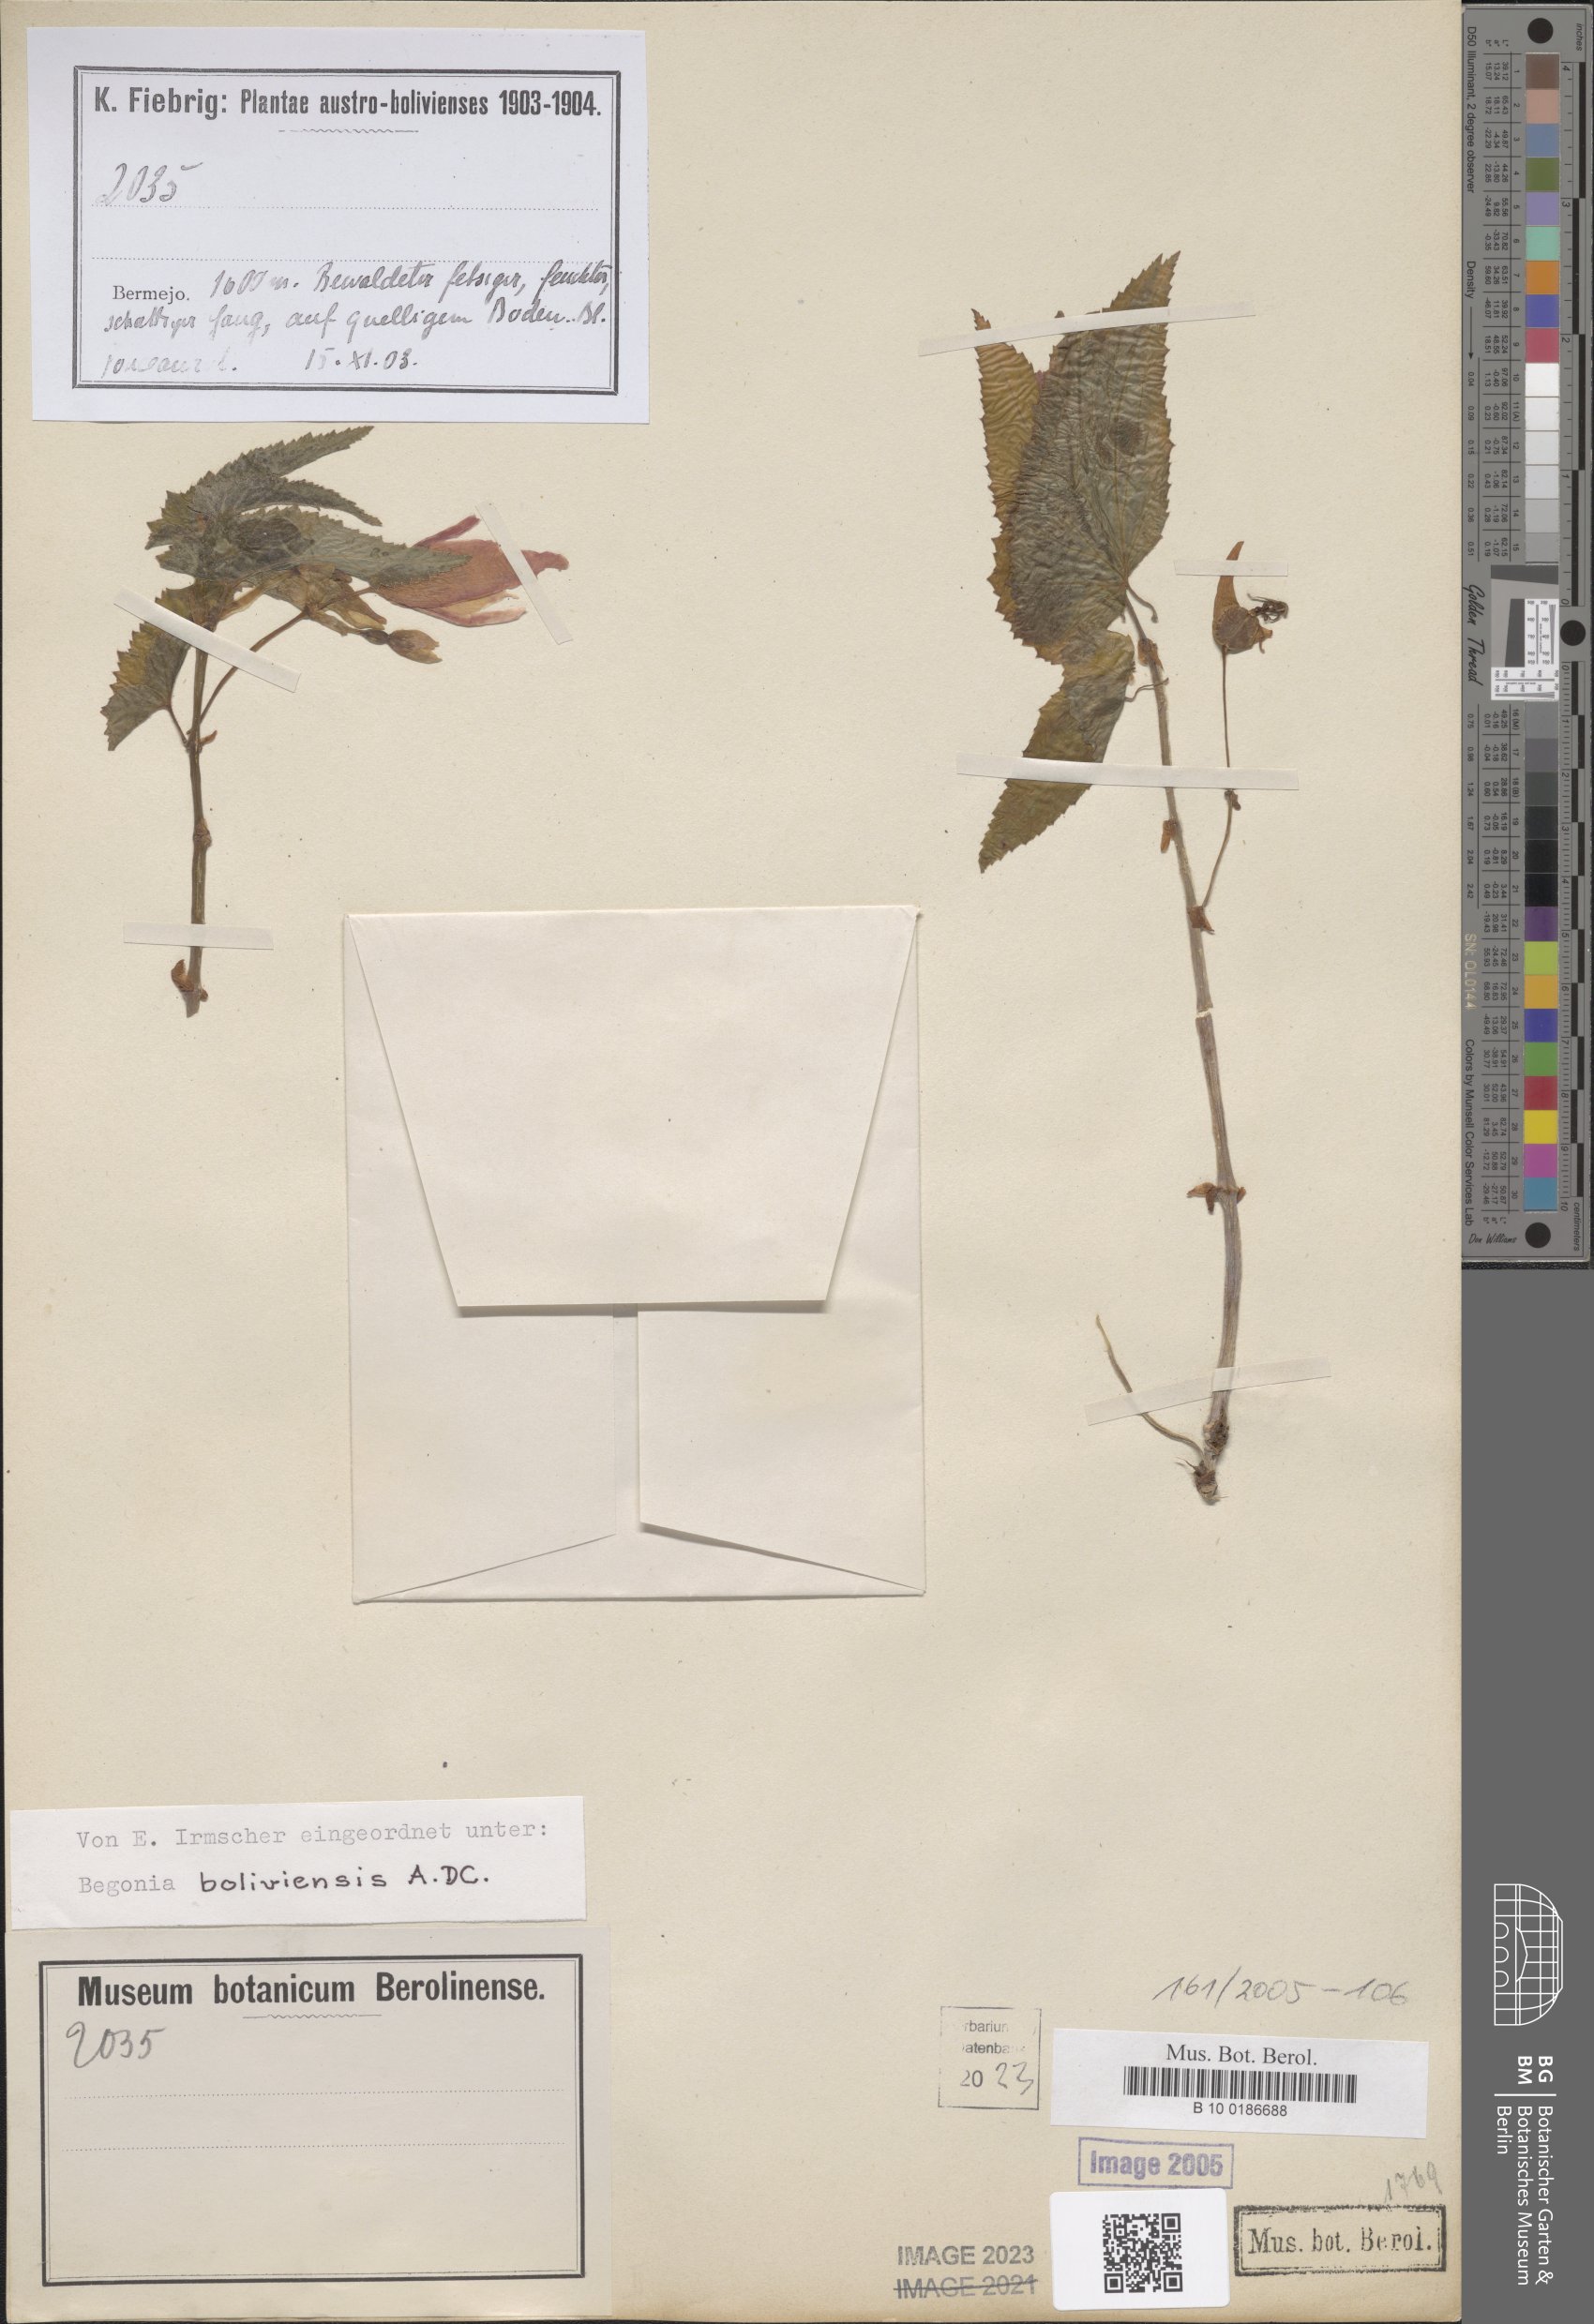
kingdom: Plantae
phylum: Tracheophyta
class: Magnoliopsida
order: Cucurbitales
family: Begoniaceae
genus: Begonia
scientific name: Begonia boliviensis
